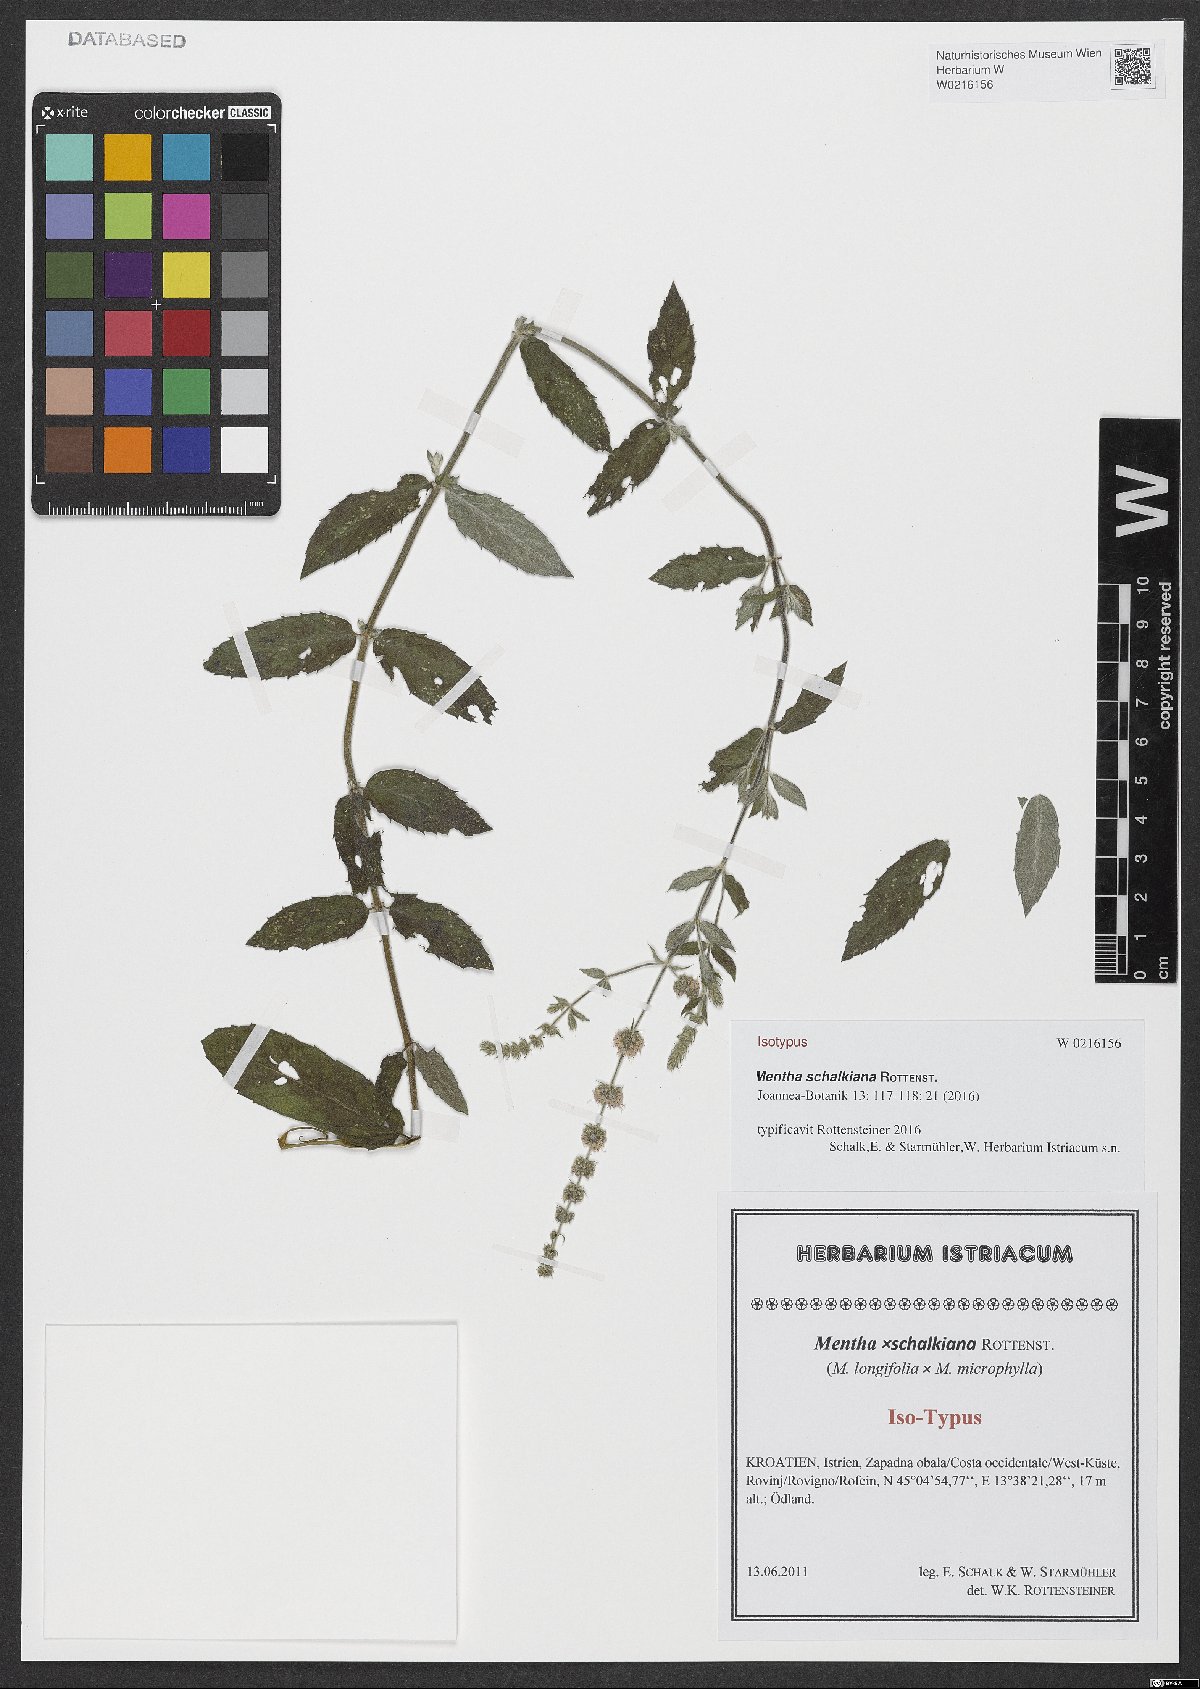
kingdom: Plantae
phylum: Tracheophyta
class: Magnoliopsida
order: Lamiales
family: Lamiaceae
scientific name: Lamiaceae
